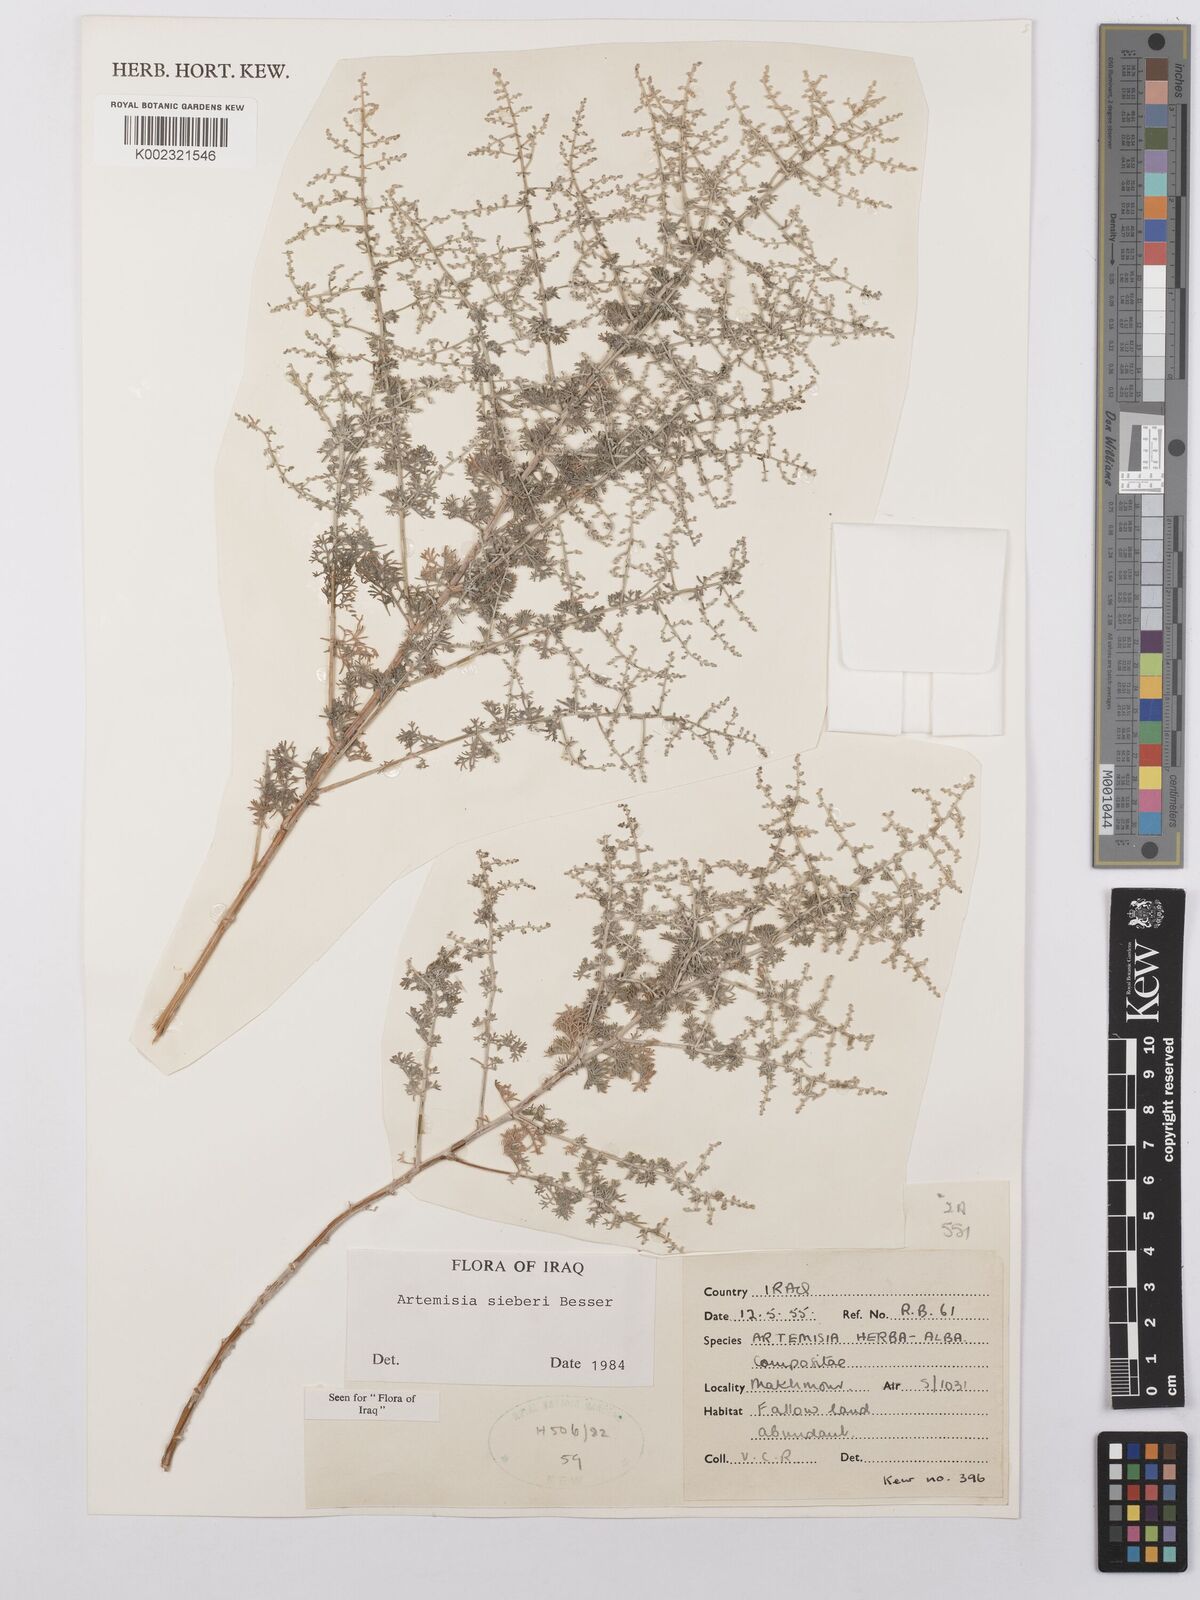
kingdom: Plantae
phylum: Tracheophyta
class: Magnoliopsida
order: Asterales
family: Asteraceae
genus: Artemisia
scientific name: Artemisia sieberi
